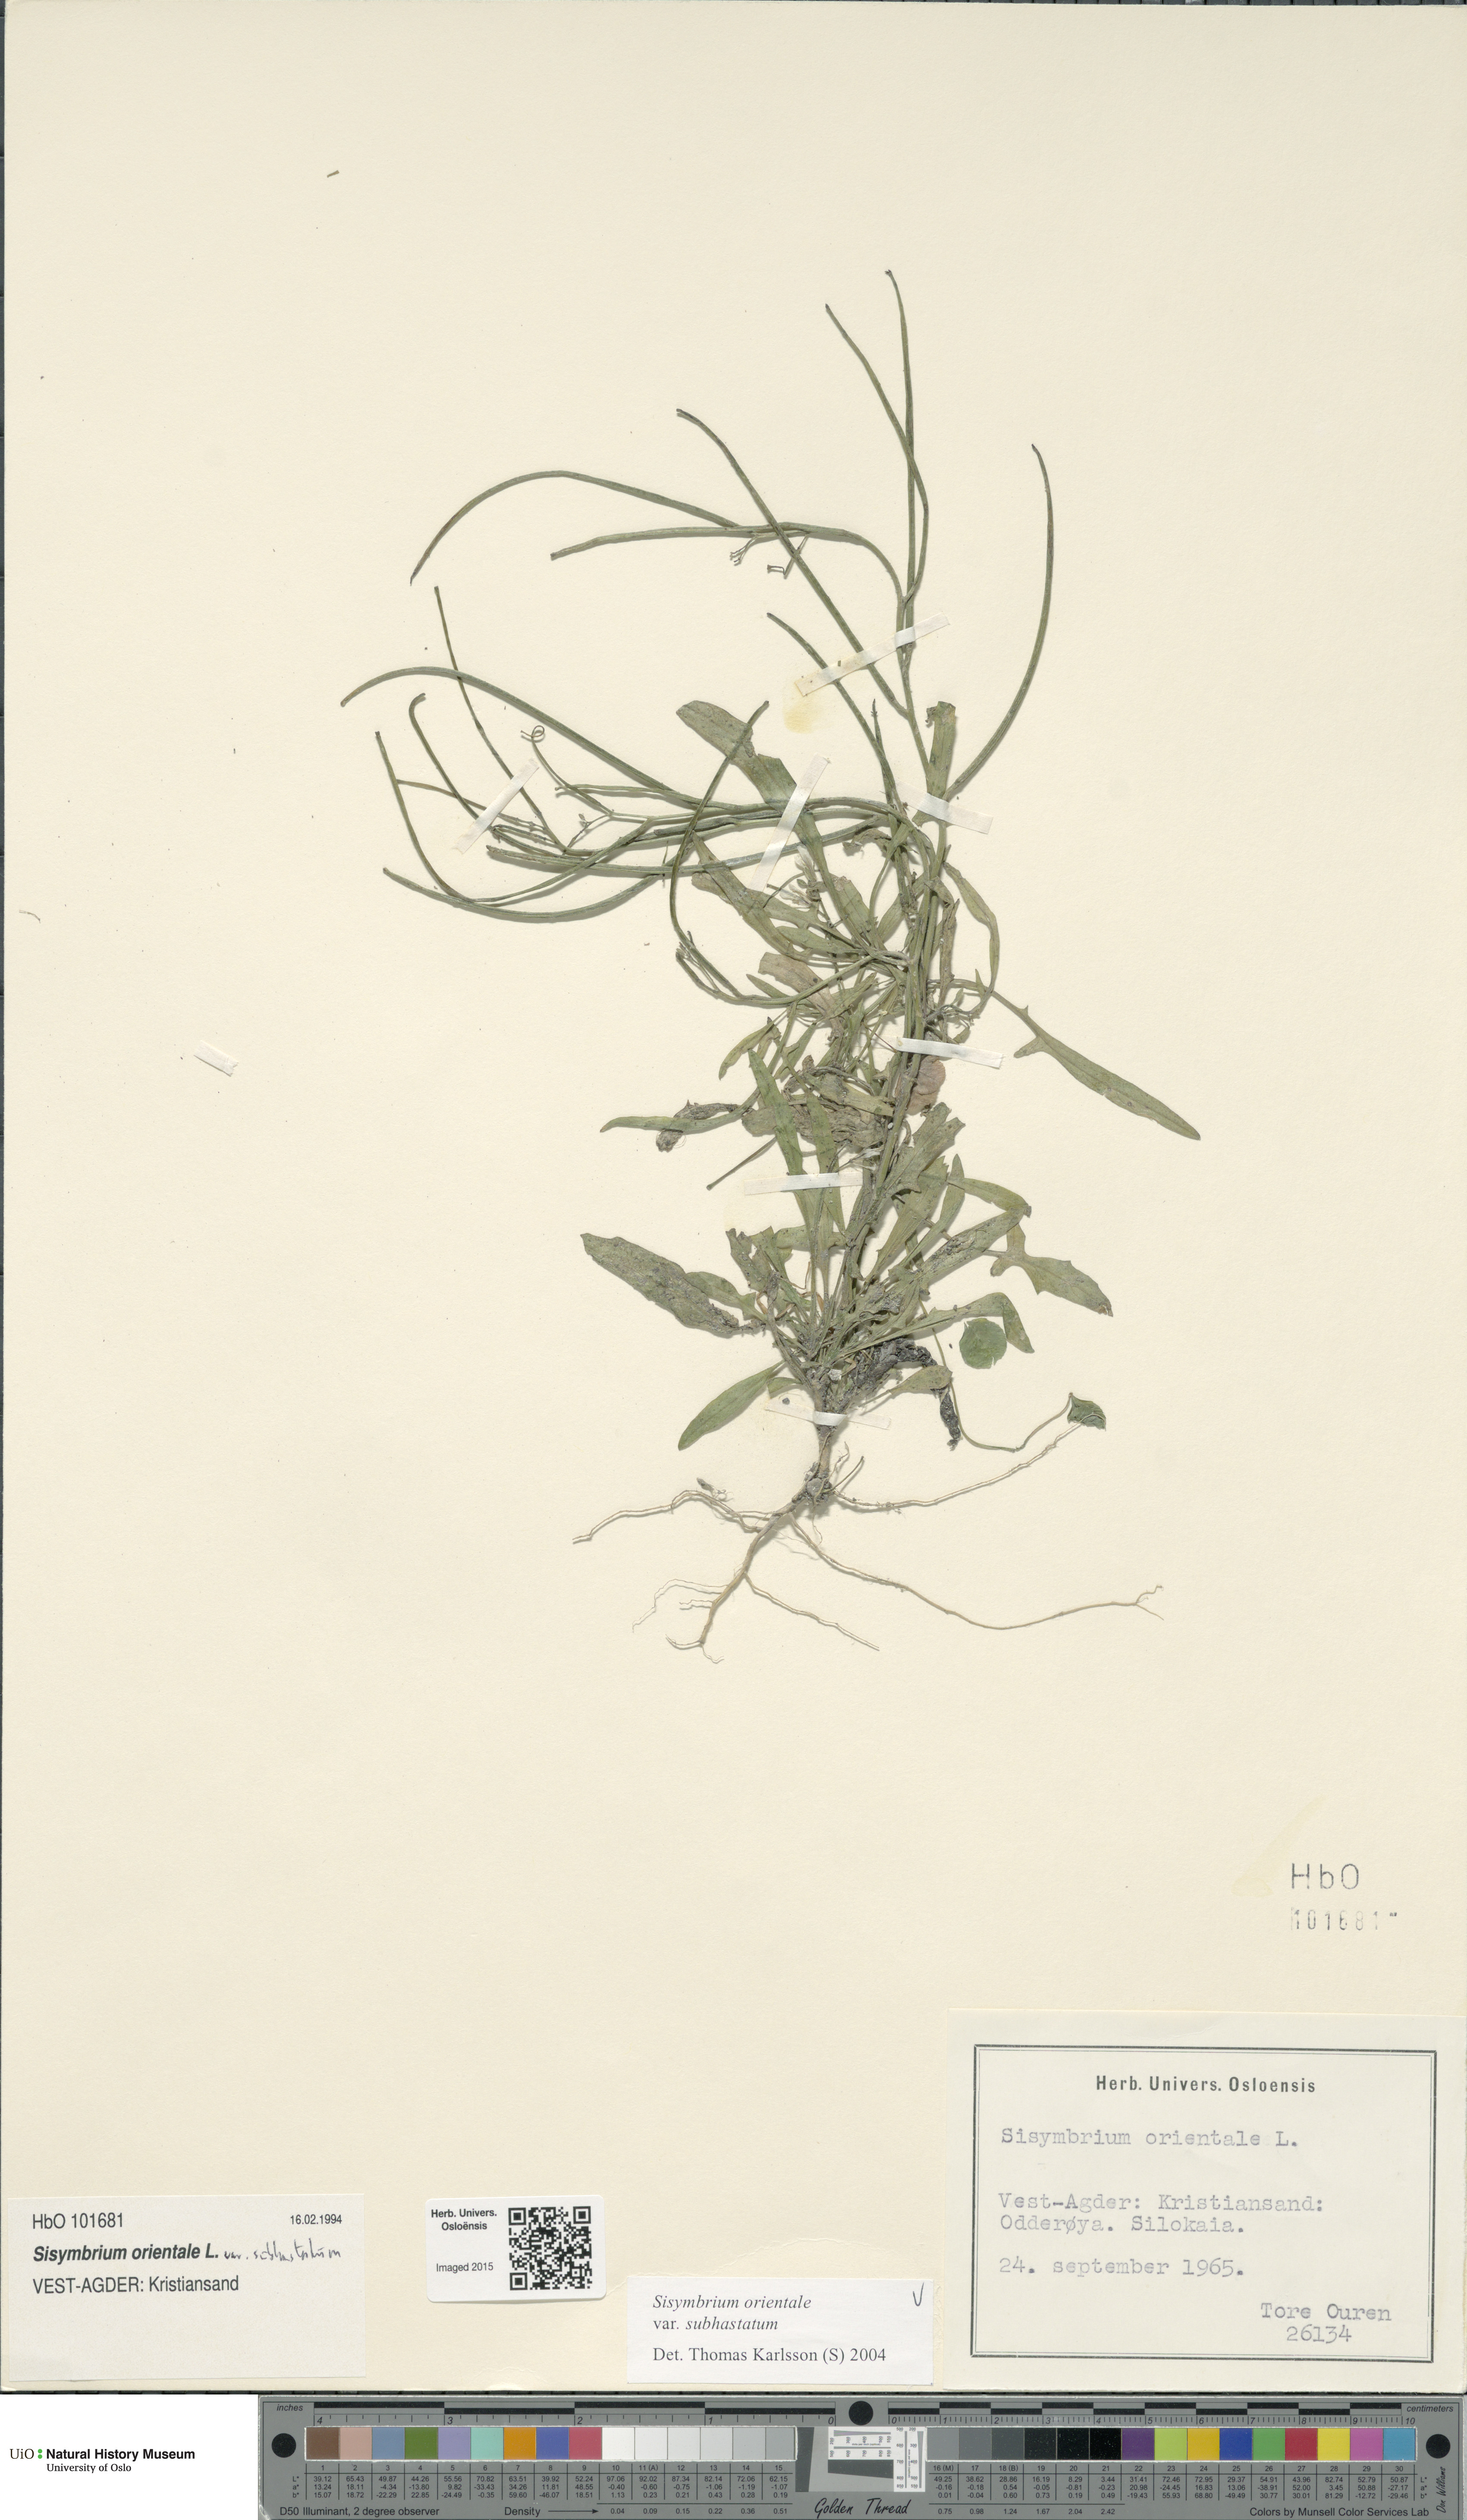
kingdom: Plantae
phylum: Tracheophyta
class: Magnoliopsida
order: Brassicales
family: Brassicaceae
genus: Sisymbrium
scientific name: Sisymbrium orientale
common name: Eastern rocket
